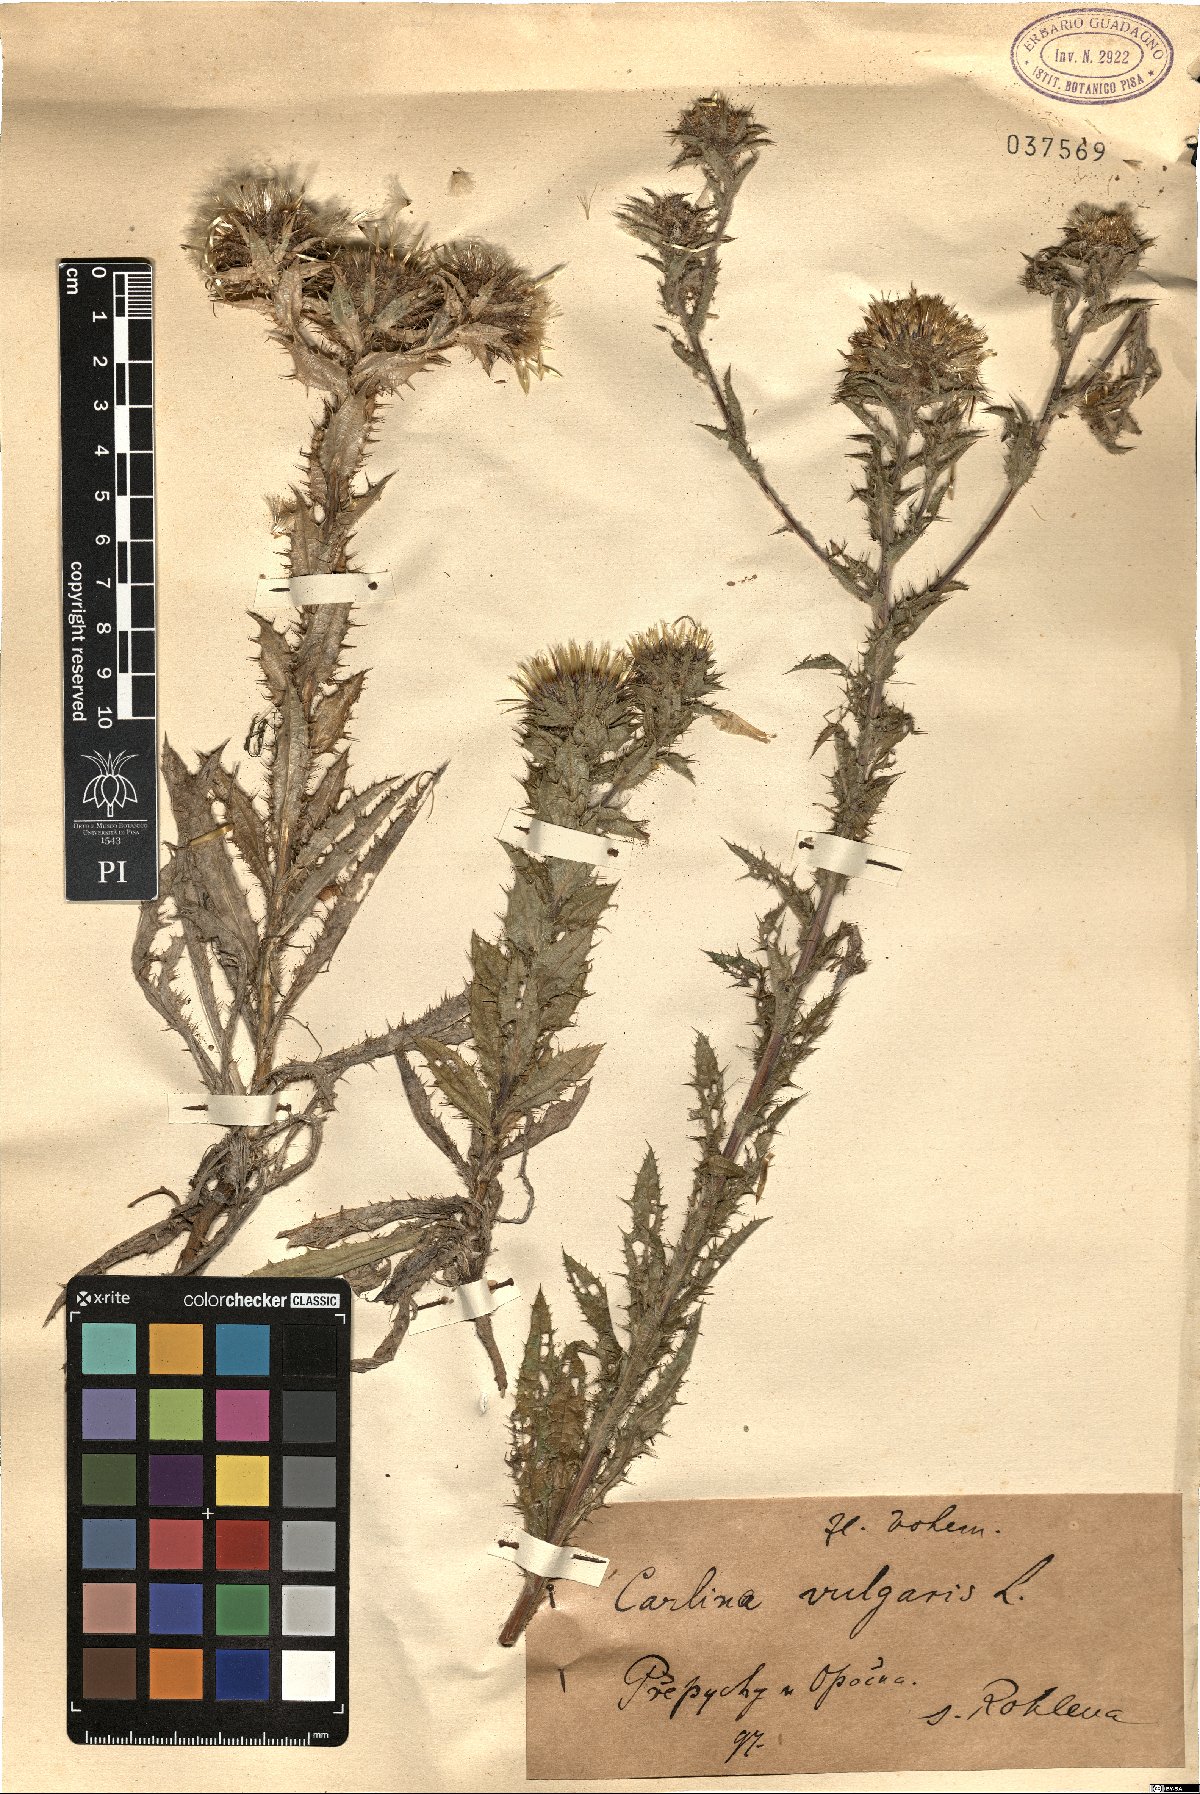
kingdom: Plantae
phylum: Tracheophyta
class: Magnoliopsida
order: Asterales
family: Asteraceae
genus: Carlina
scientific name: Carlina vulgaris
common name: Carline thistle
